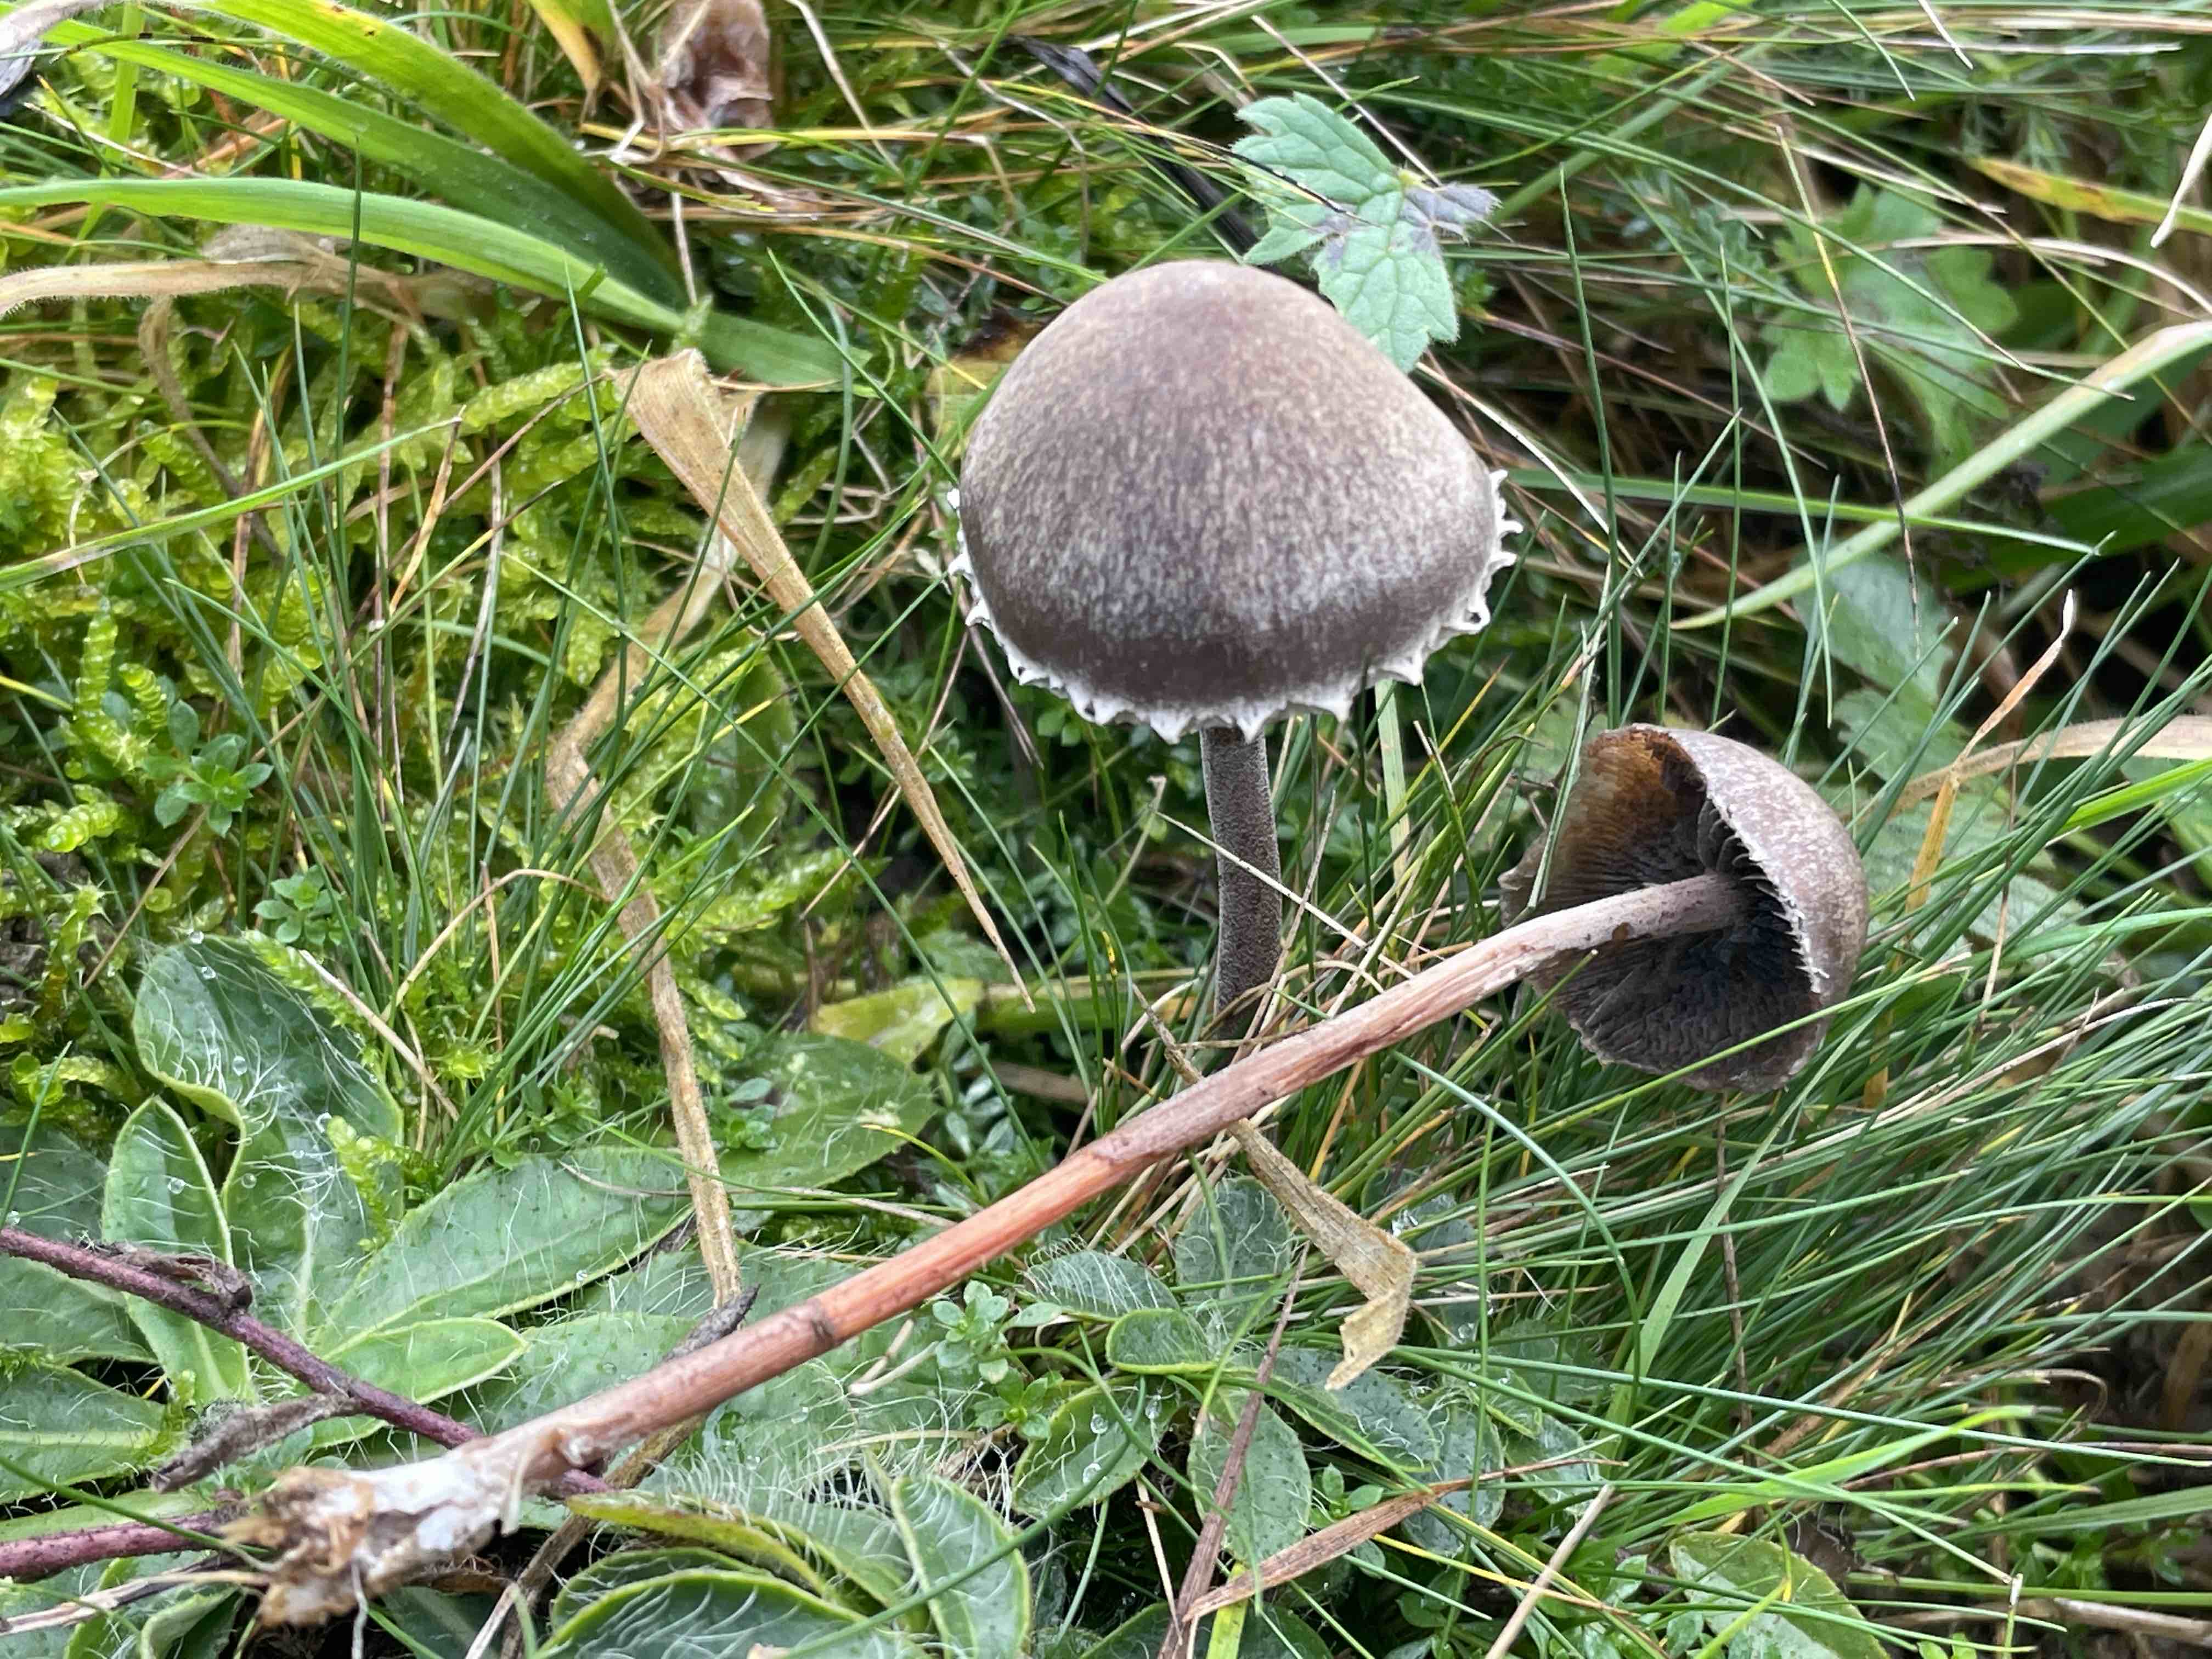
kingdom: Fungi
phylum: Basidiomycota
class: Agaricomycetes
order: Agaricales
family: Bolbitiaceae
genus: Panaeolus
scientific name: Panaeolus papilionaceus
